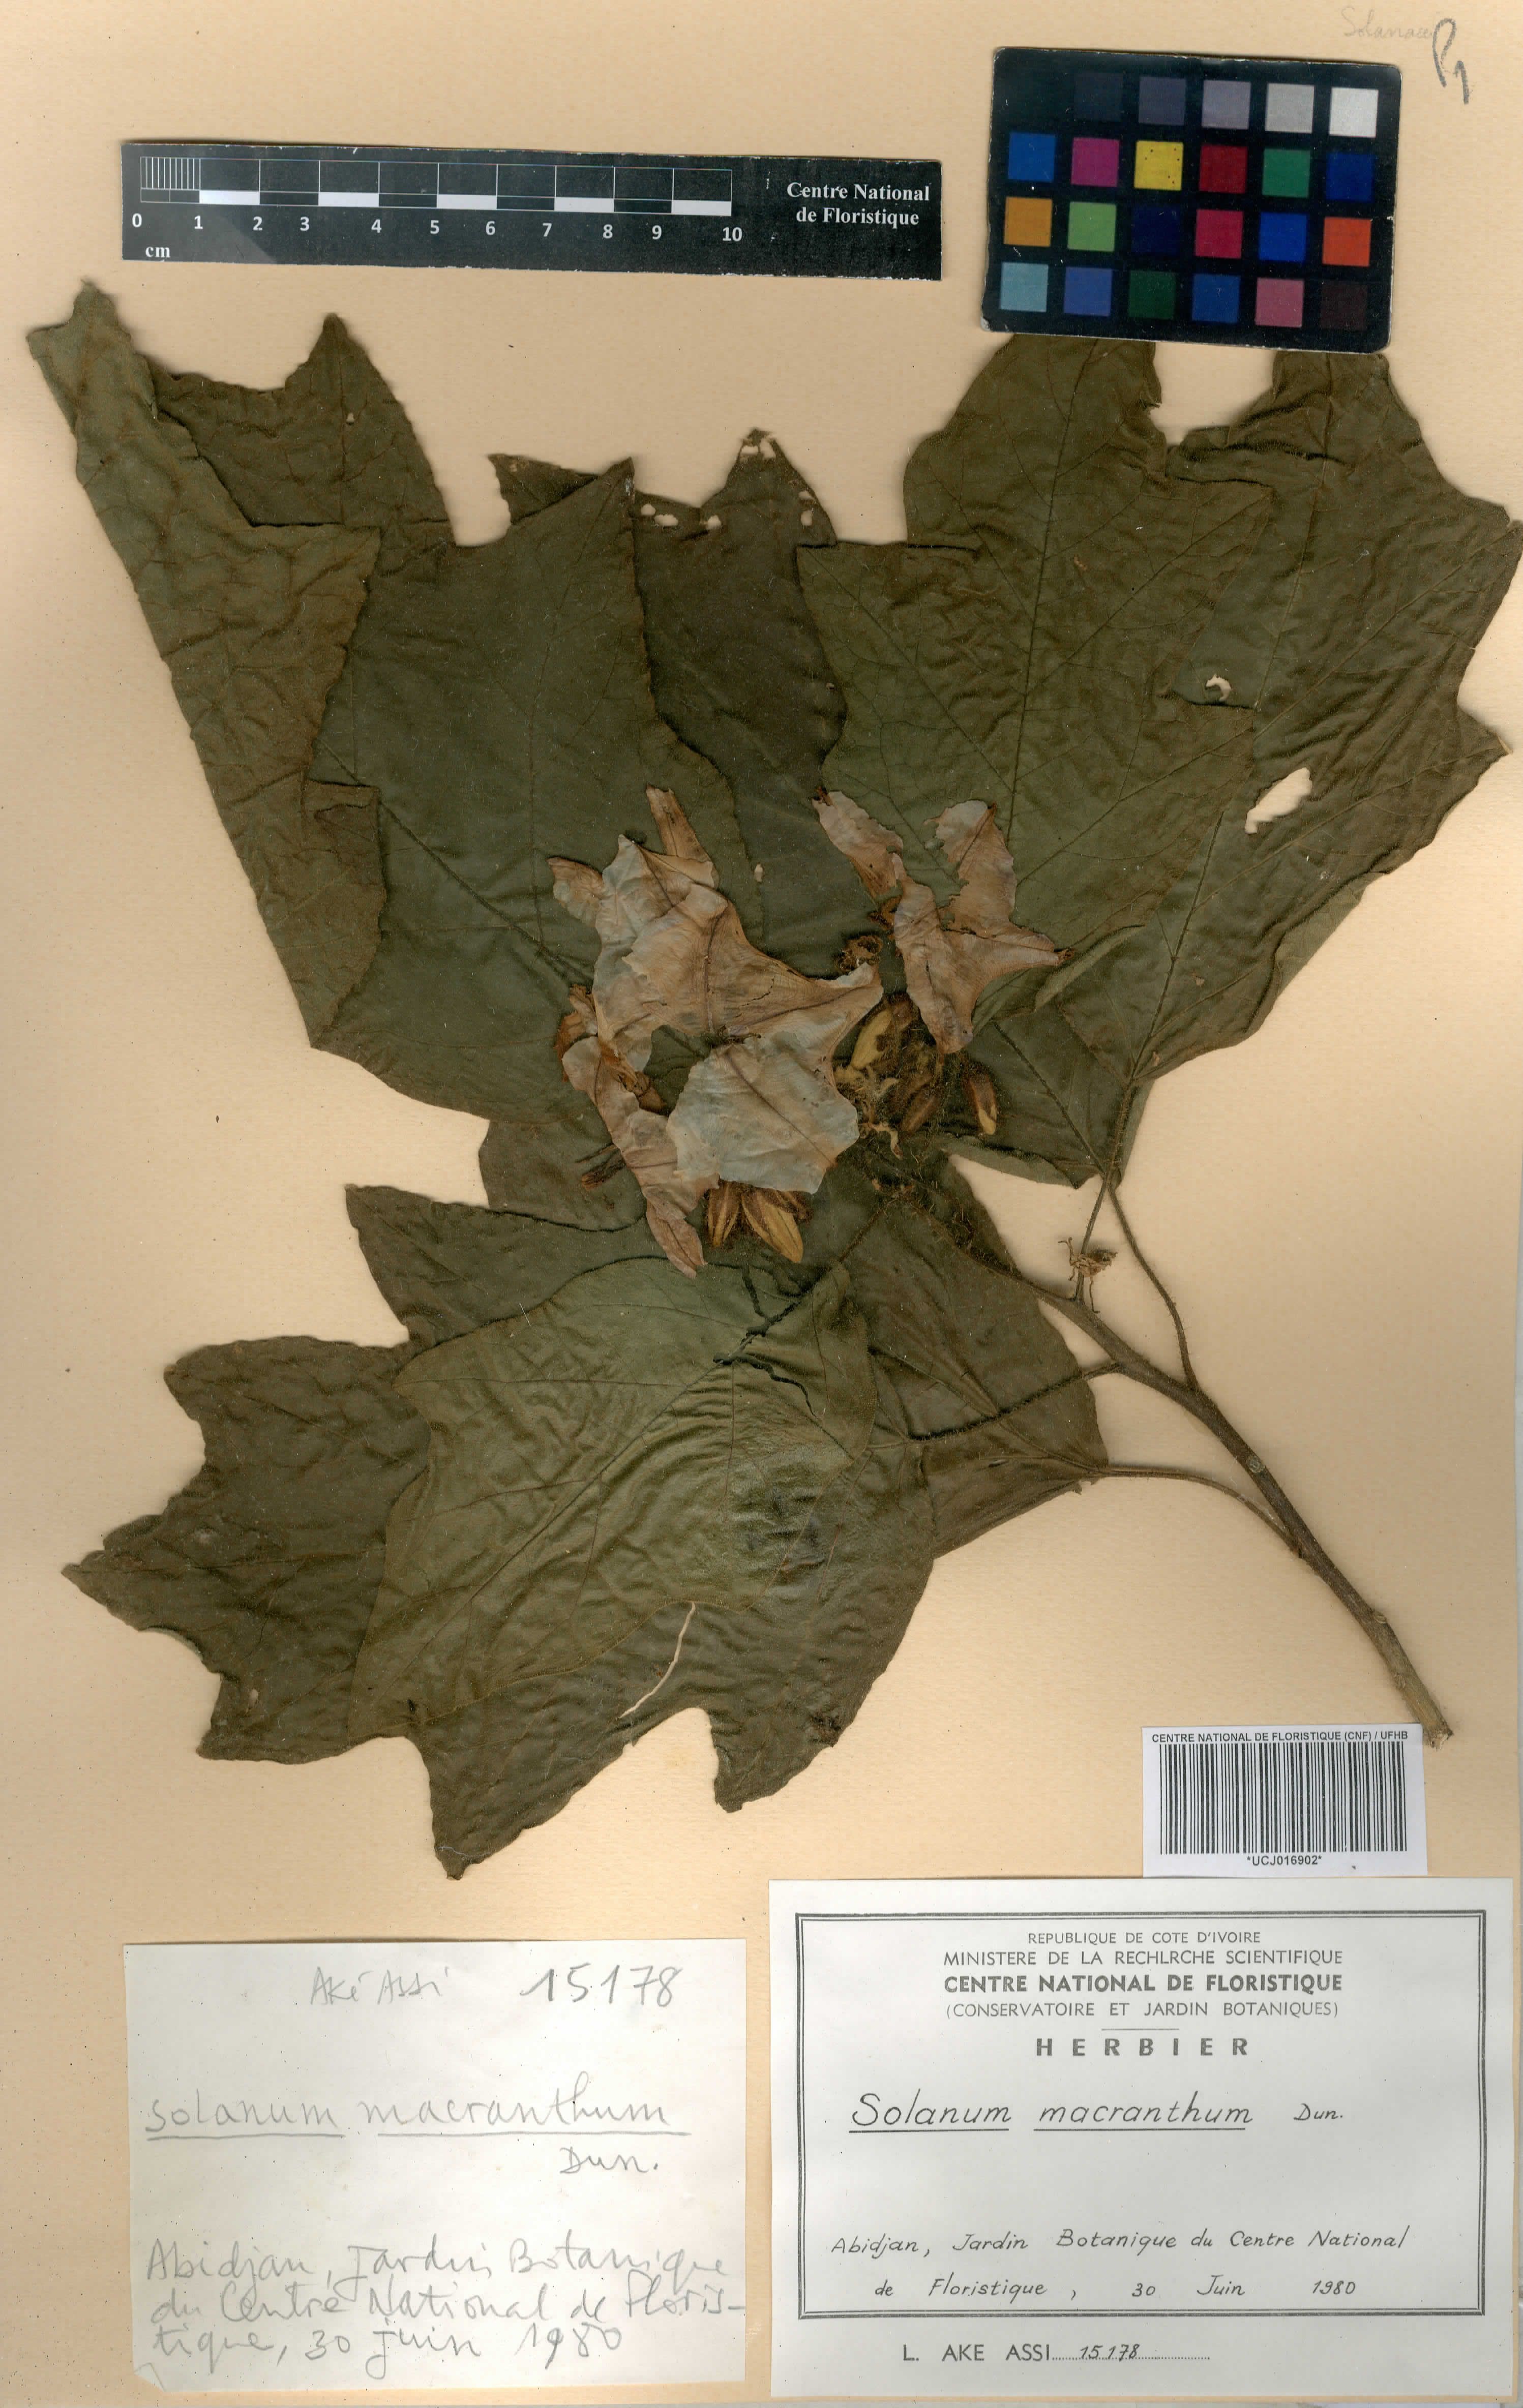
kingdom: Plantae
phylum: Tracheophyta
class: Magnoliopsida
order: Solanales
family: Solanaceae
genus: Solanum
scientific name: Solanum lycopersicum
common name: Garden tomato
